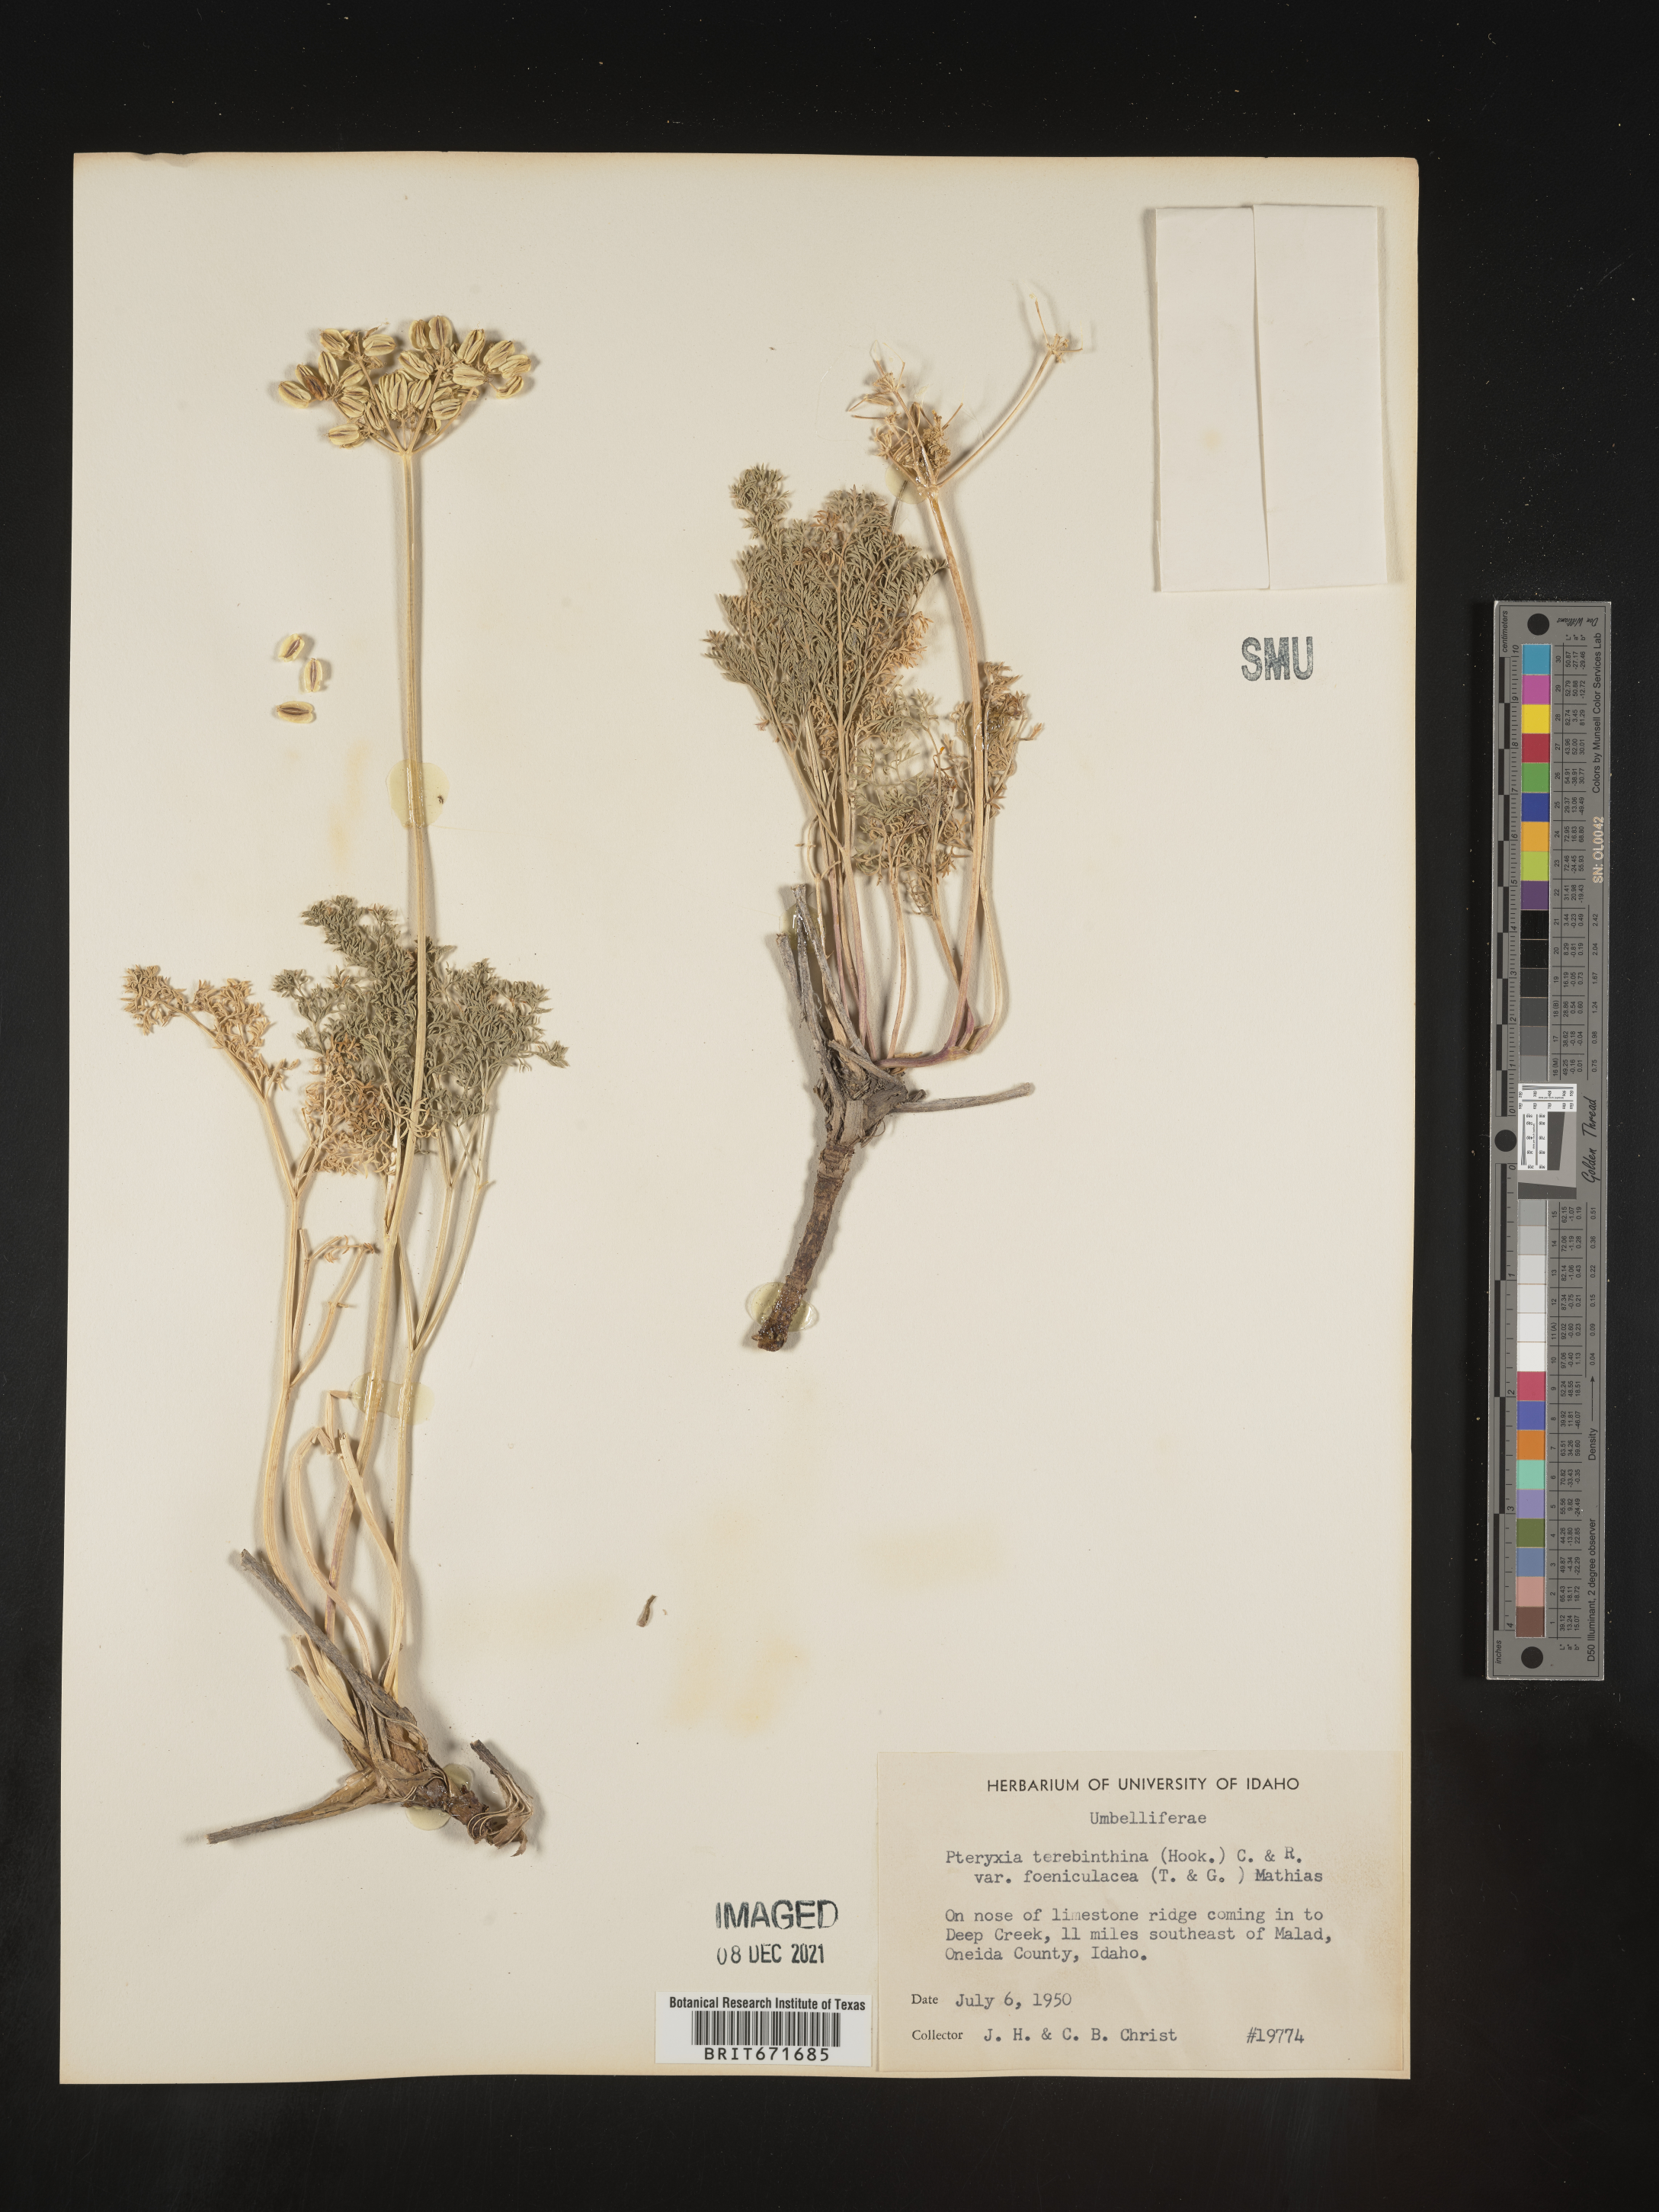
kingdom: Plantae
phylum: Tracheophyta
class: Magnoliopsida
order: Apiales
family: Apiaceae
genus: Pteryxia
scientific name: Pteryxia terebinthina
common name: Turpentine wavewing
